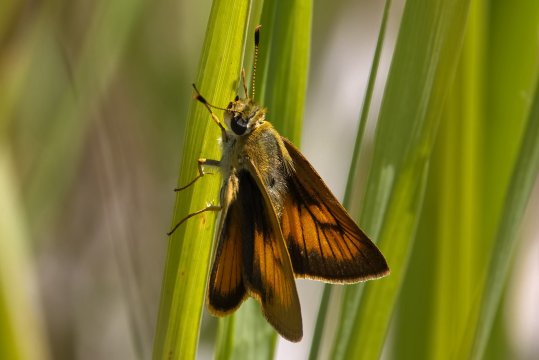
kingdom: Animalia
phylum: Arthropoda
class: Insecta
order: Lepidoptera
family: Hesperiidae
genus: Atrytone
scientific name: Atrytone delaware
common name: Delaware Skipper
